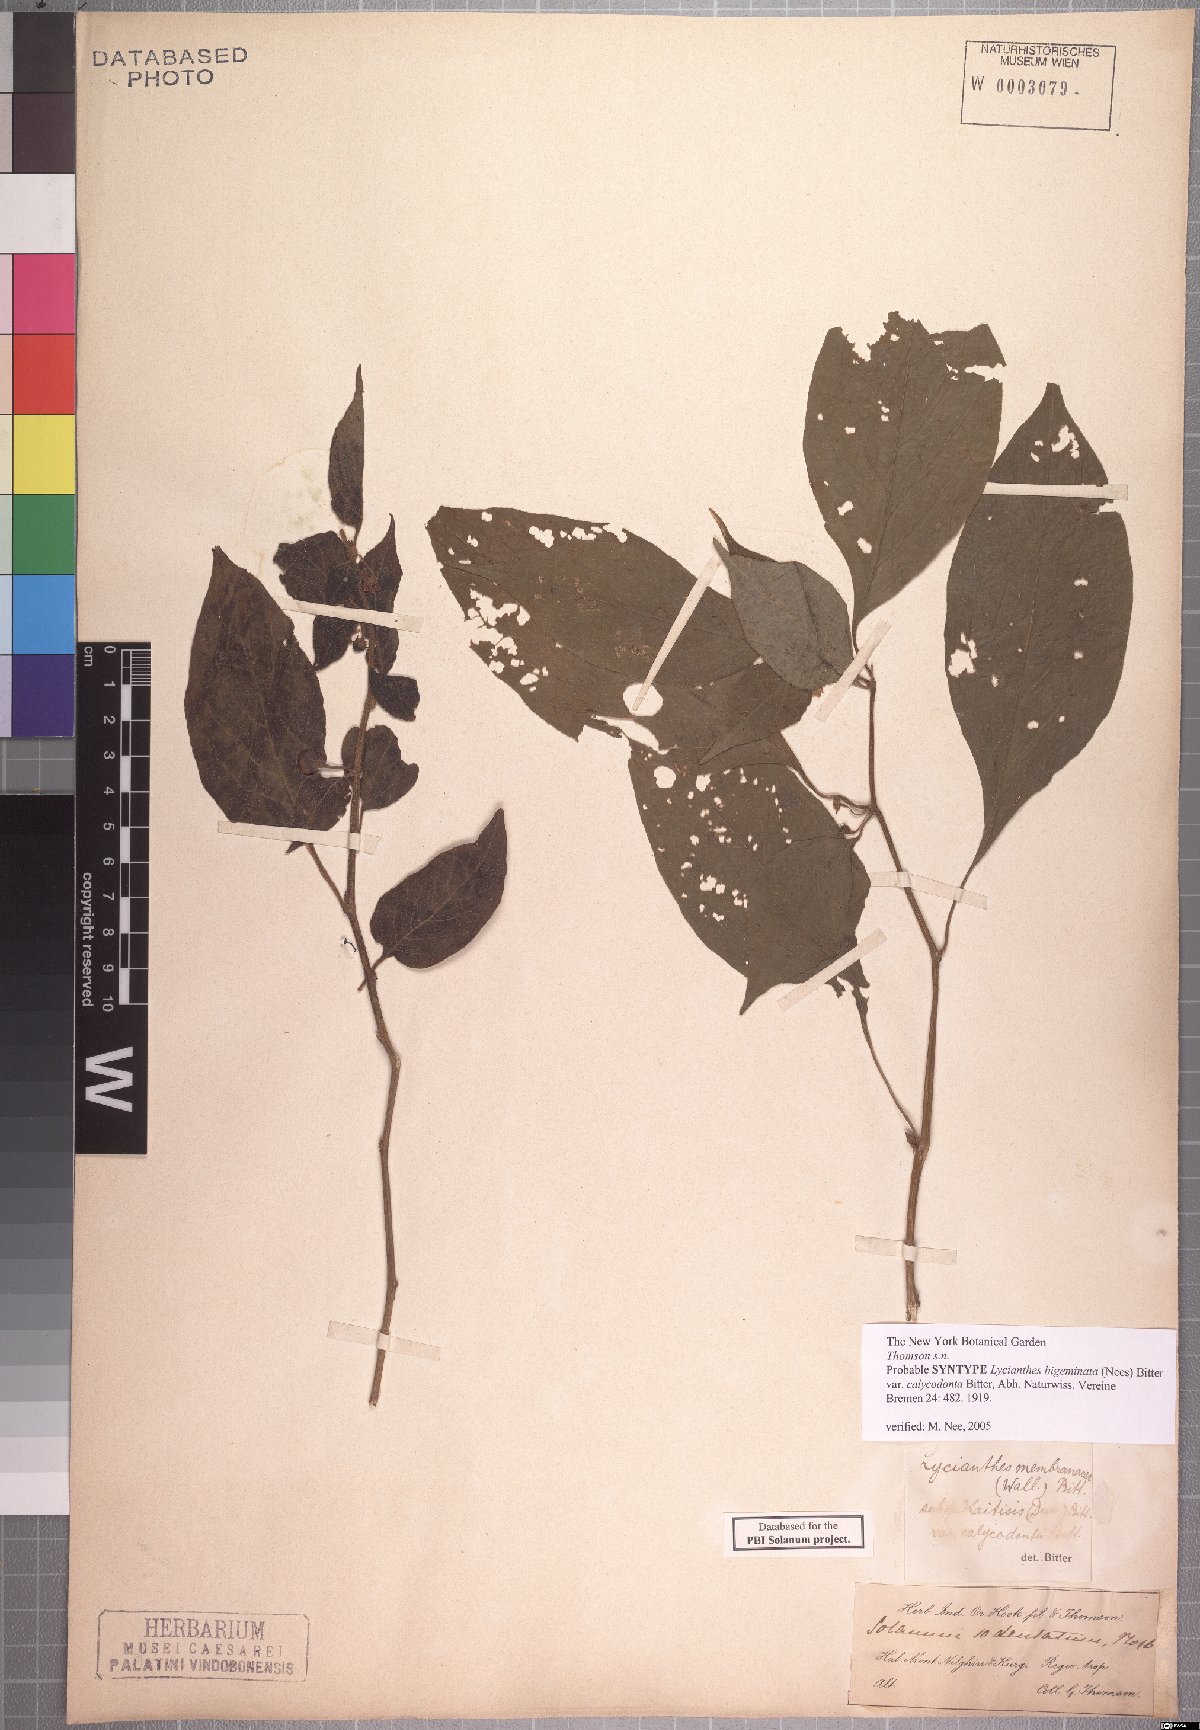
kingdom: Plantae
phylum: Tracheophyta
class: Magnoliopsida
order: Solanales
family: Solanaceae
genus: Lycianthes
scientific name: Lycianthes laevis
